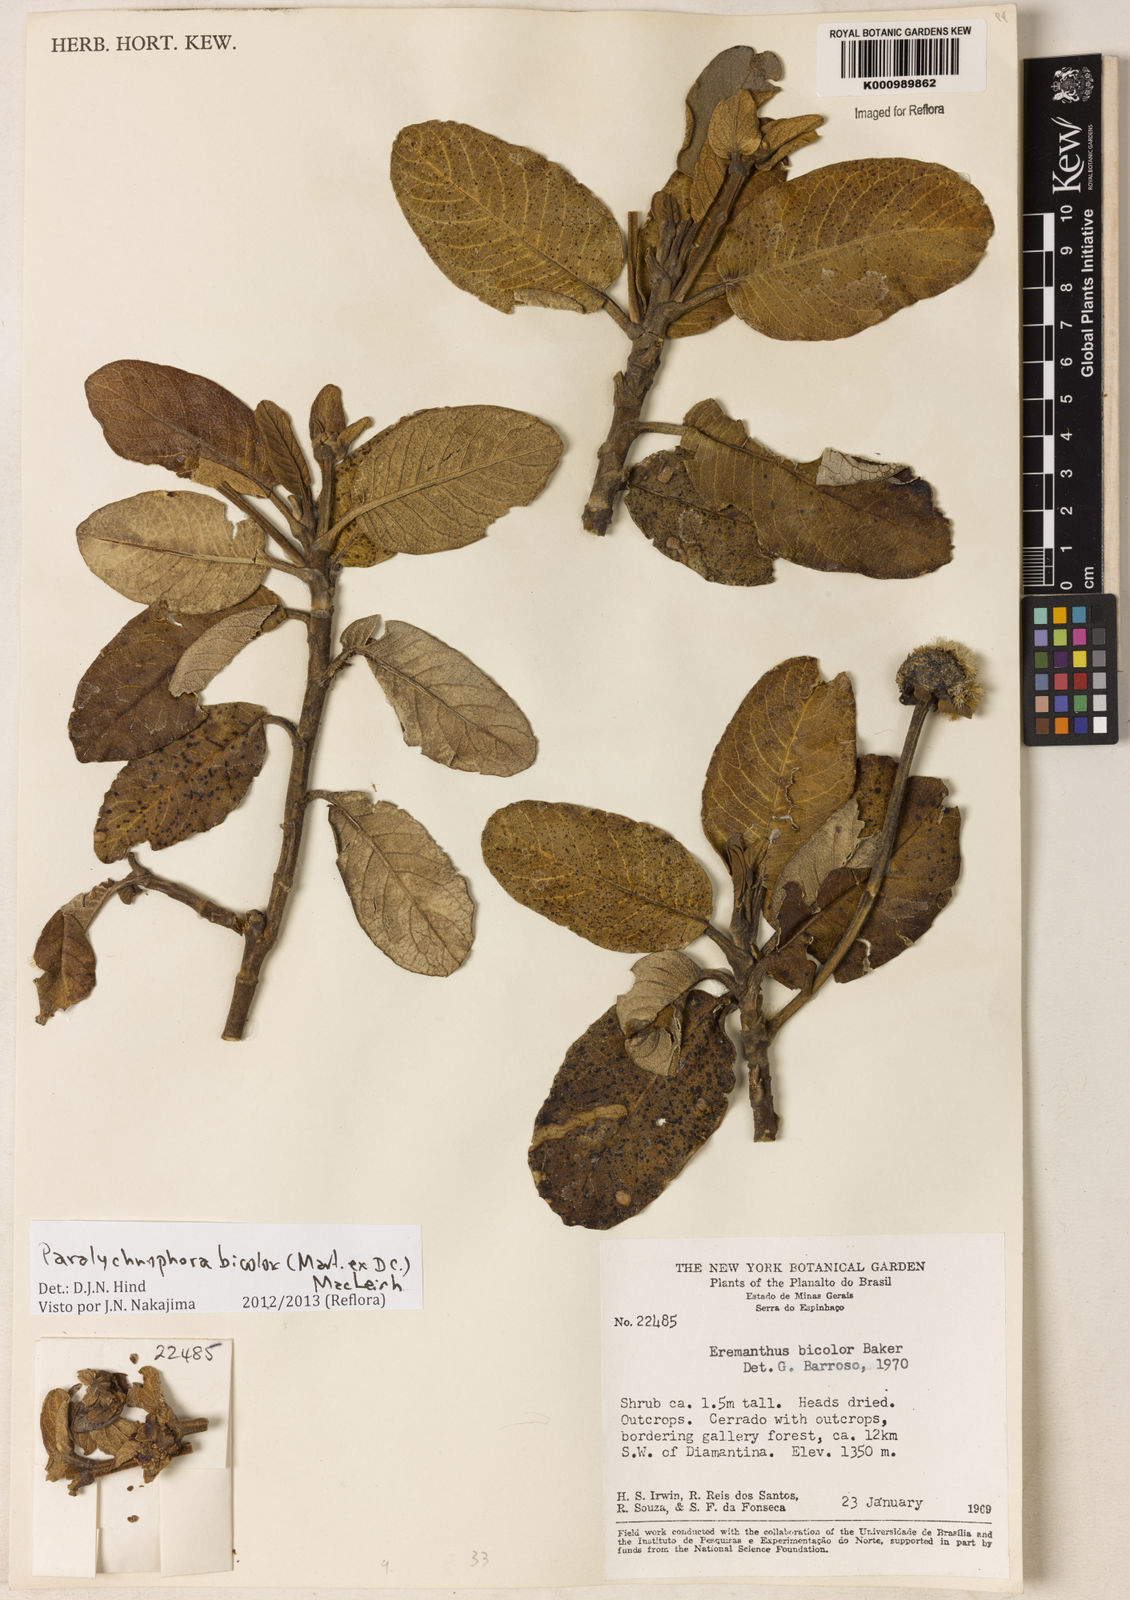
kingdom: Plantae
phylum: Tracheophyta
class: Magnoliopsida
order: Asterales
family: Asteraceae
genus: Paralychnophora
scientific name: Paralychnophora bicolor
